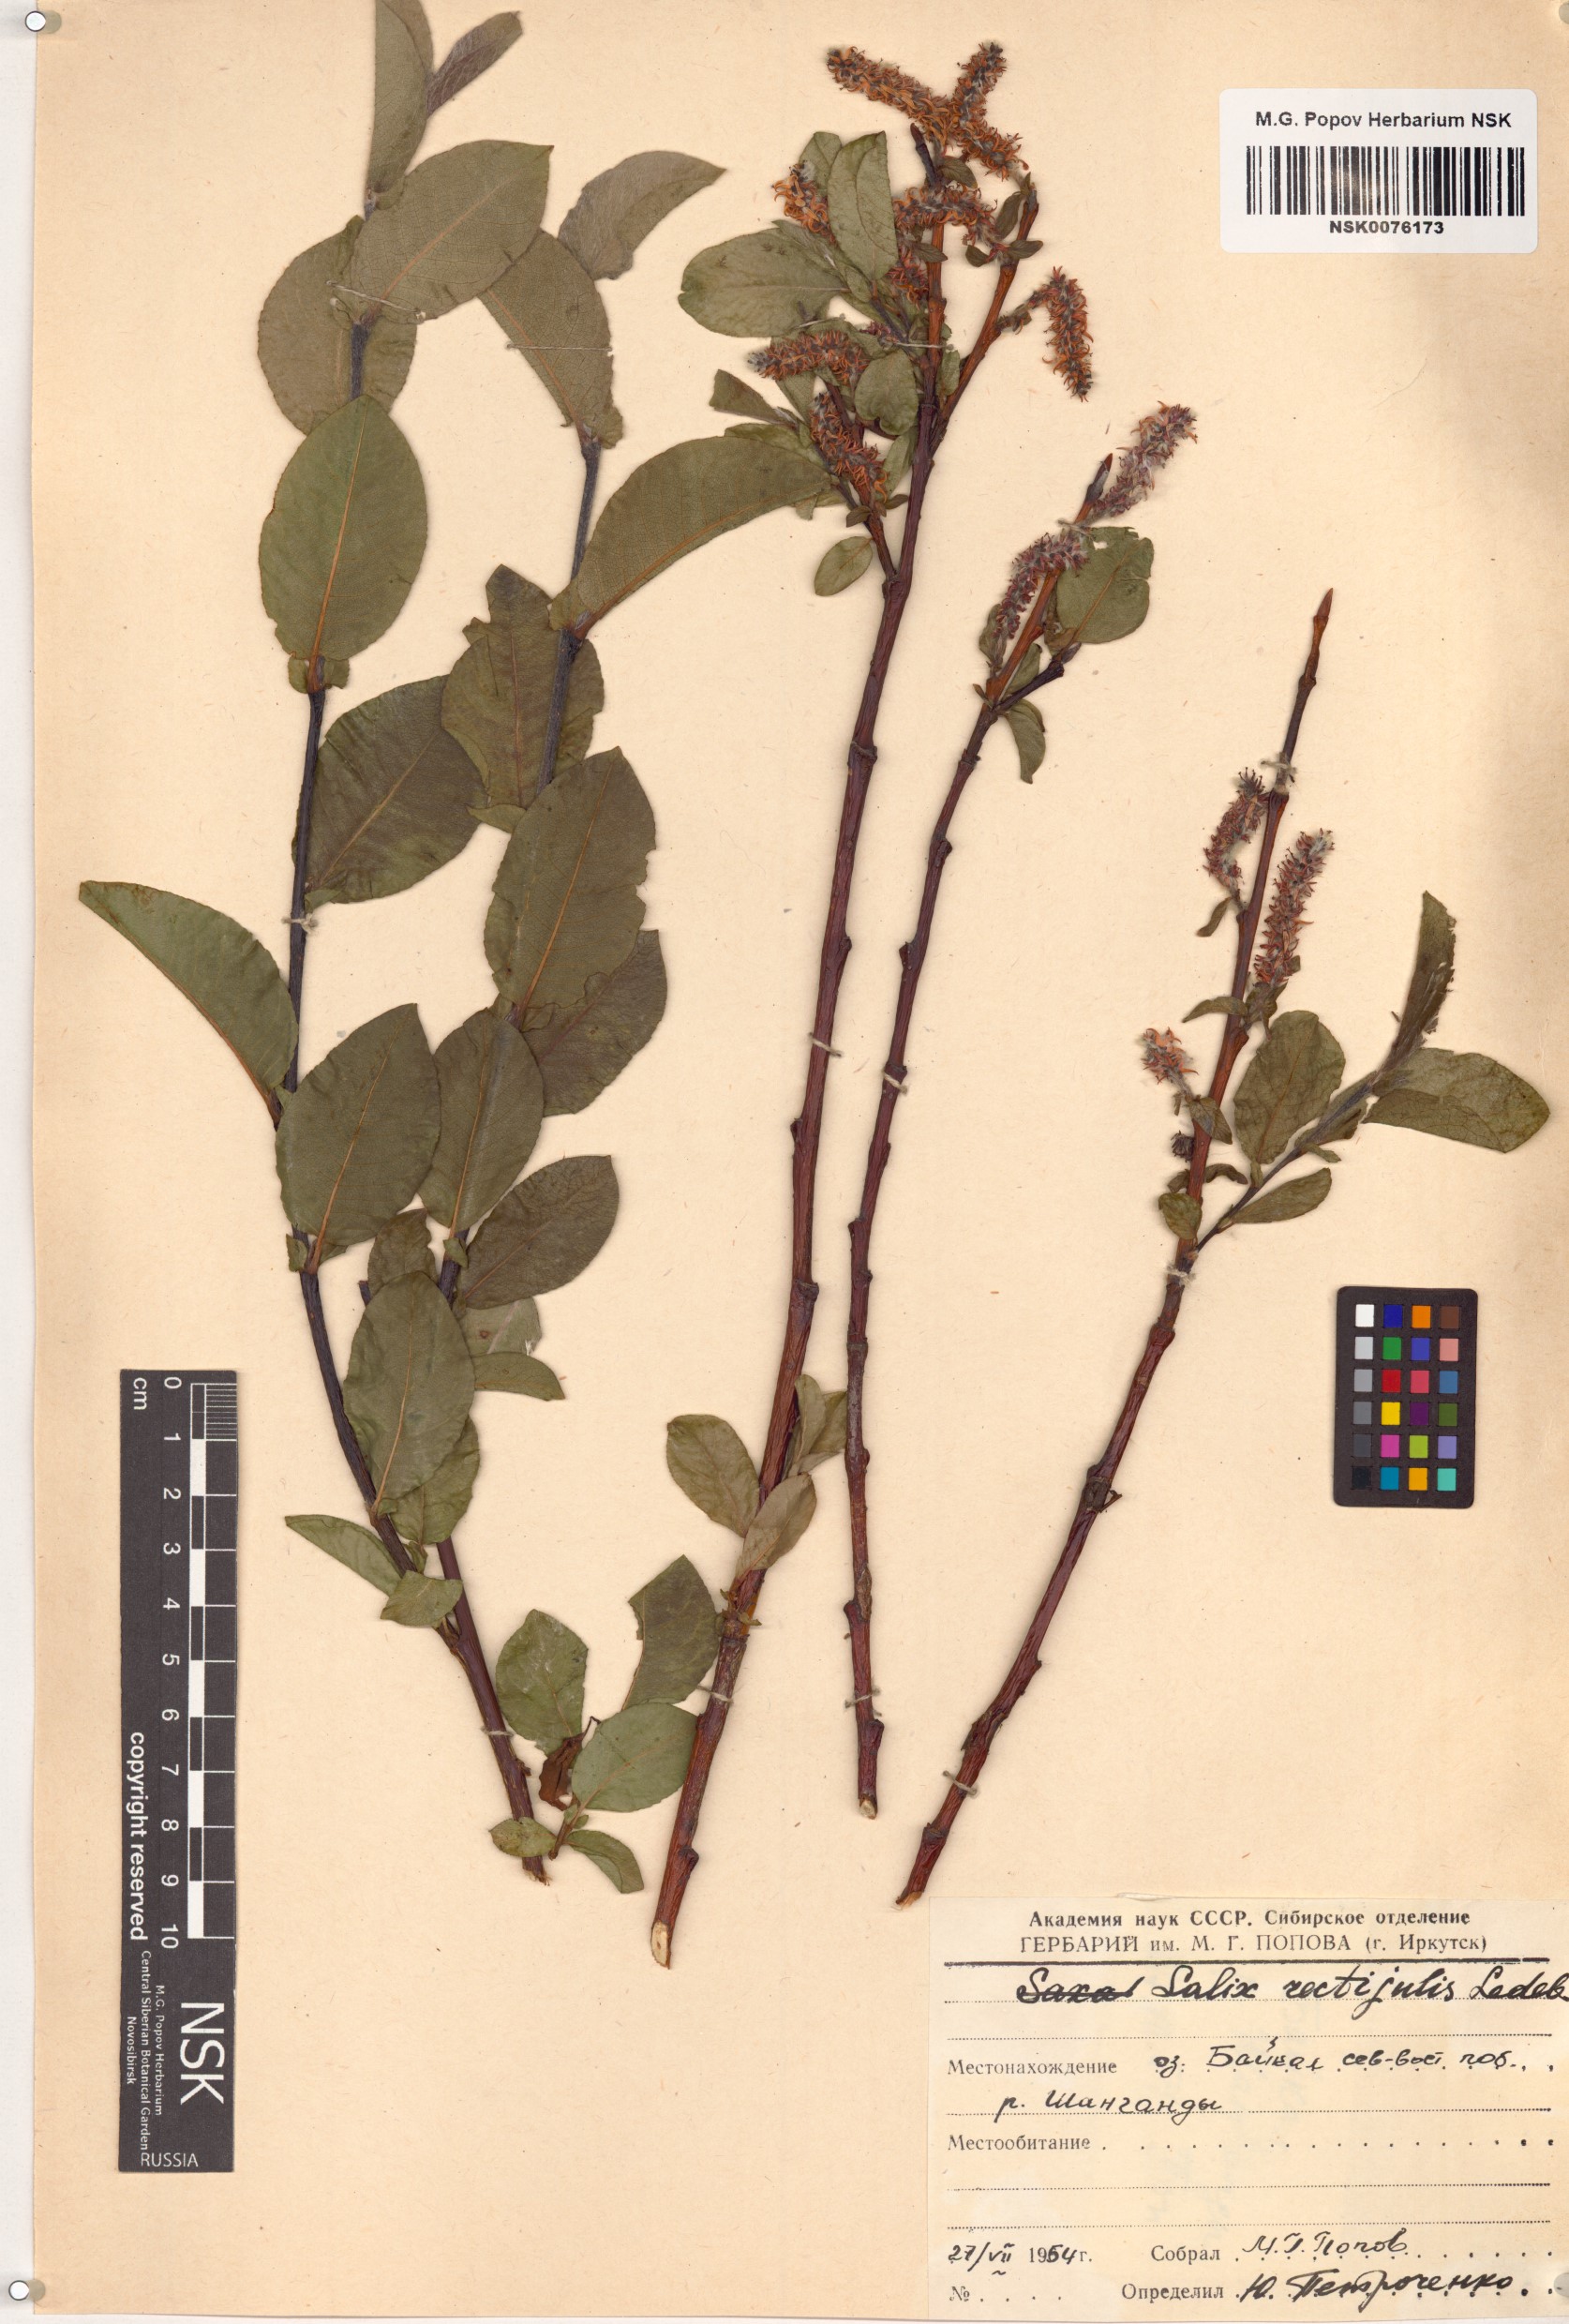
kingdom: Plantae
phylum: Tracheophyta
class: Magnoliopsida
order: Malpighiales
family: Salicaceae
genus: Salix
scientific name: Salix rectijulis
